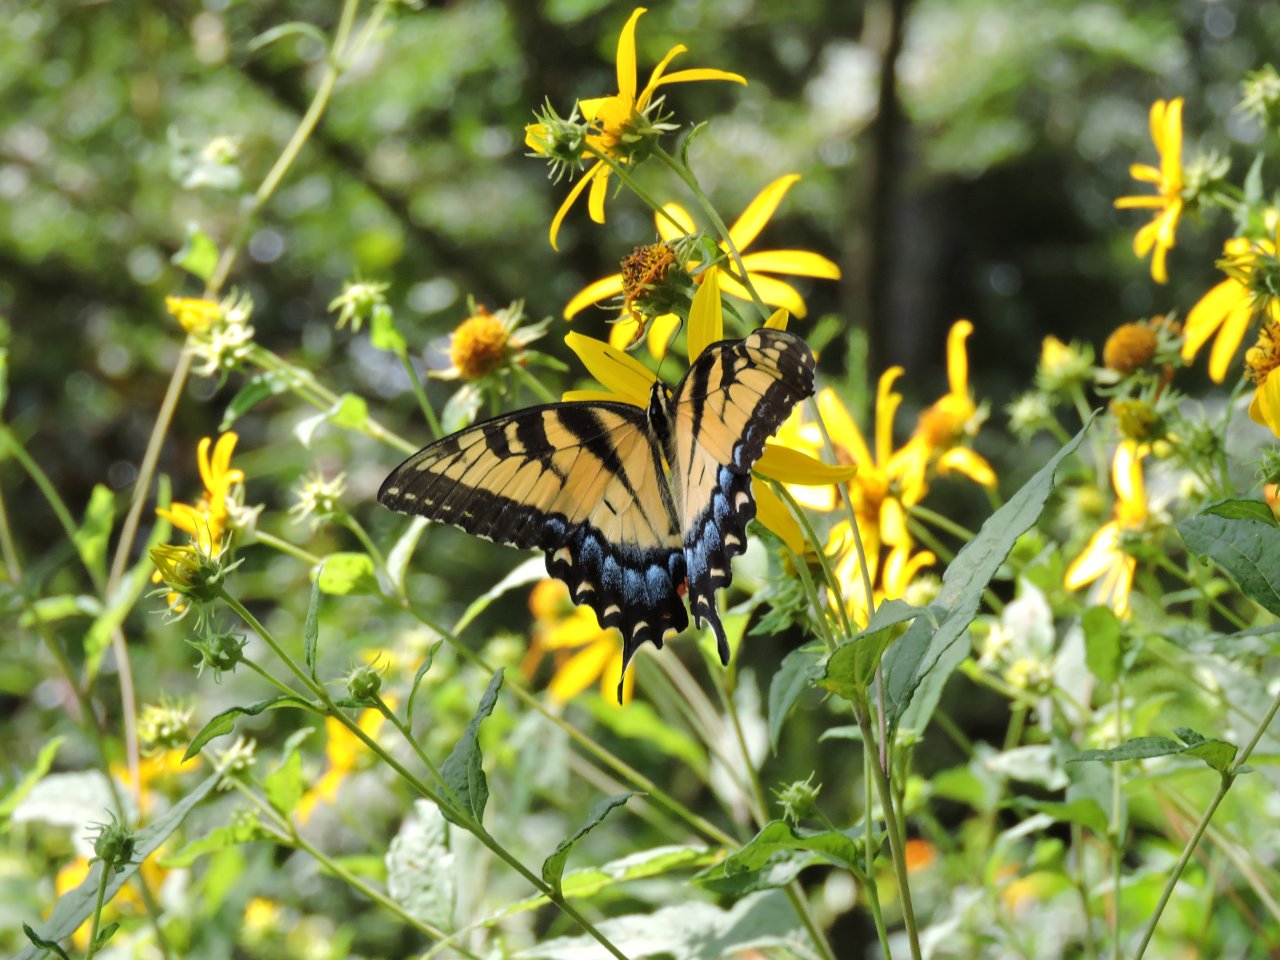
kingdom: Animalia
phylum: Arthropoda
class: Insecta
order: Lepidoptera
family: Papilionidae
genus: Pterourus
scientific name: Pterourus glaucus
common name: Eastern Tiger Swallowtail
